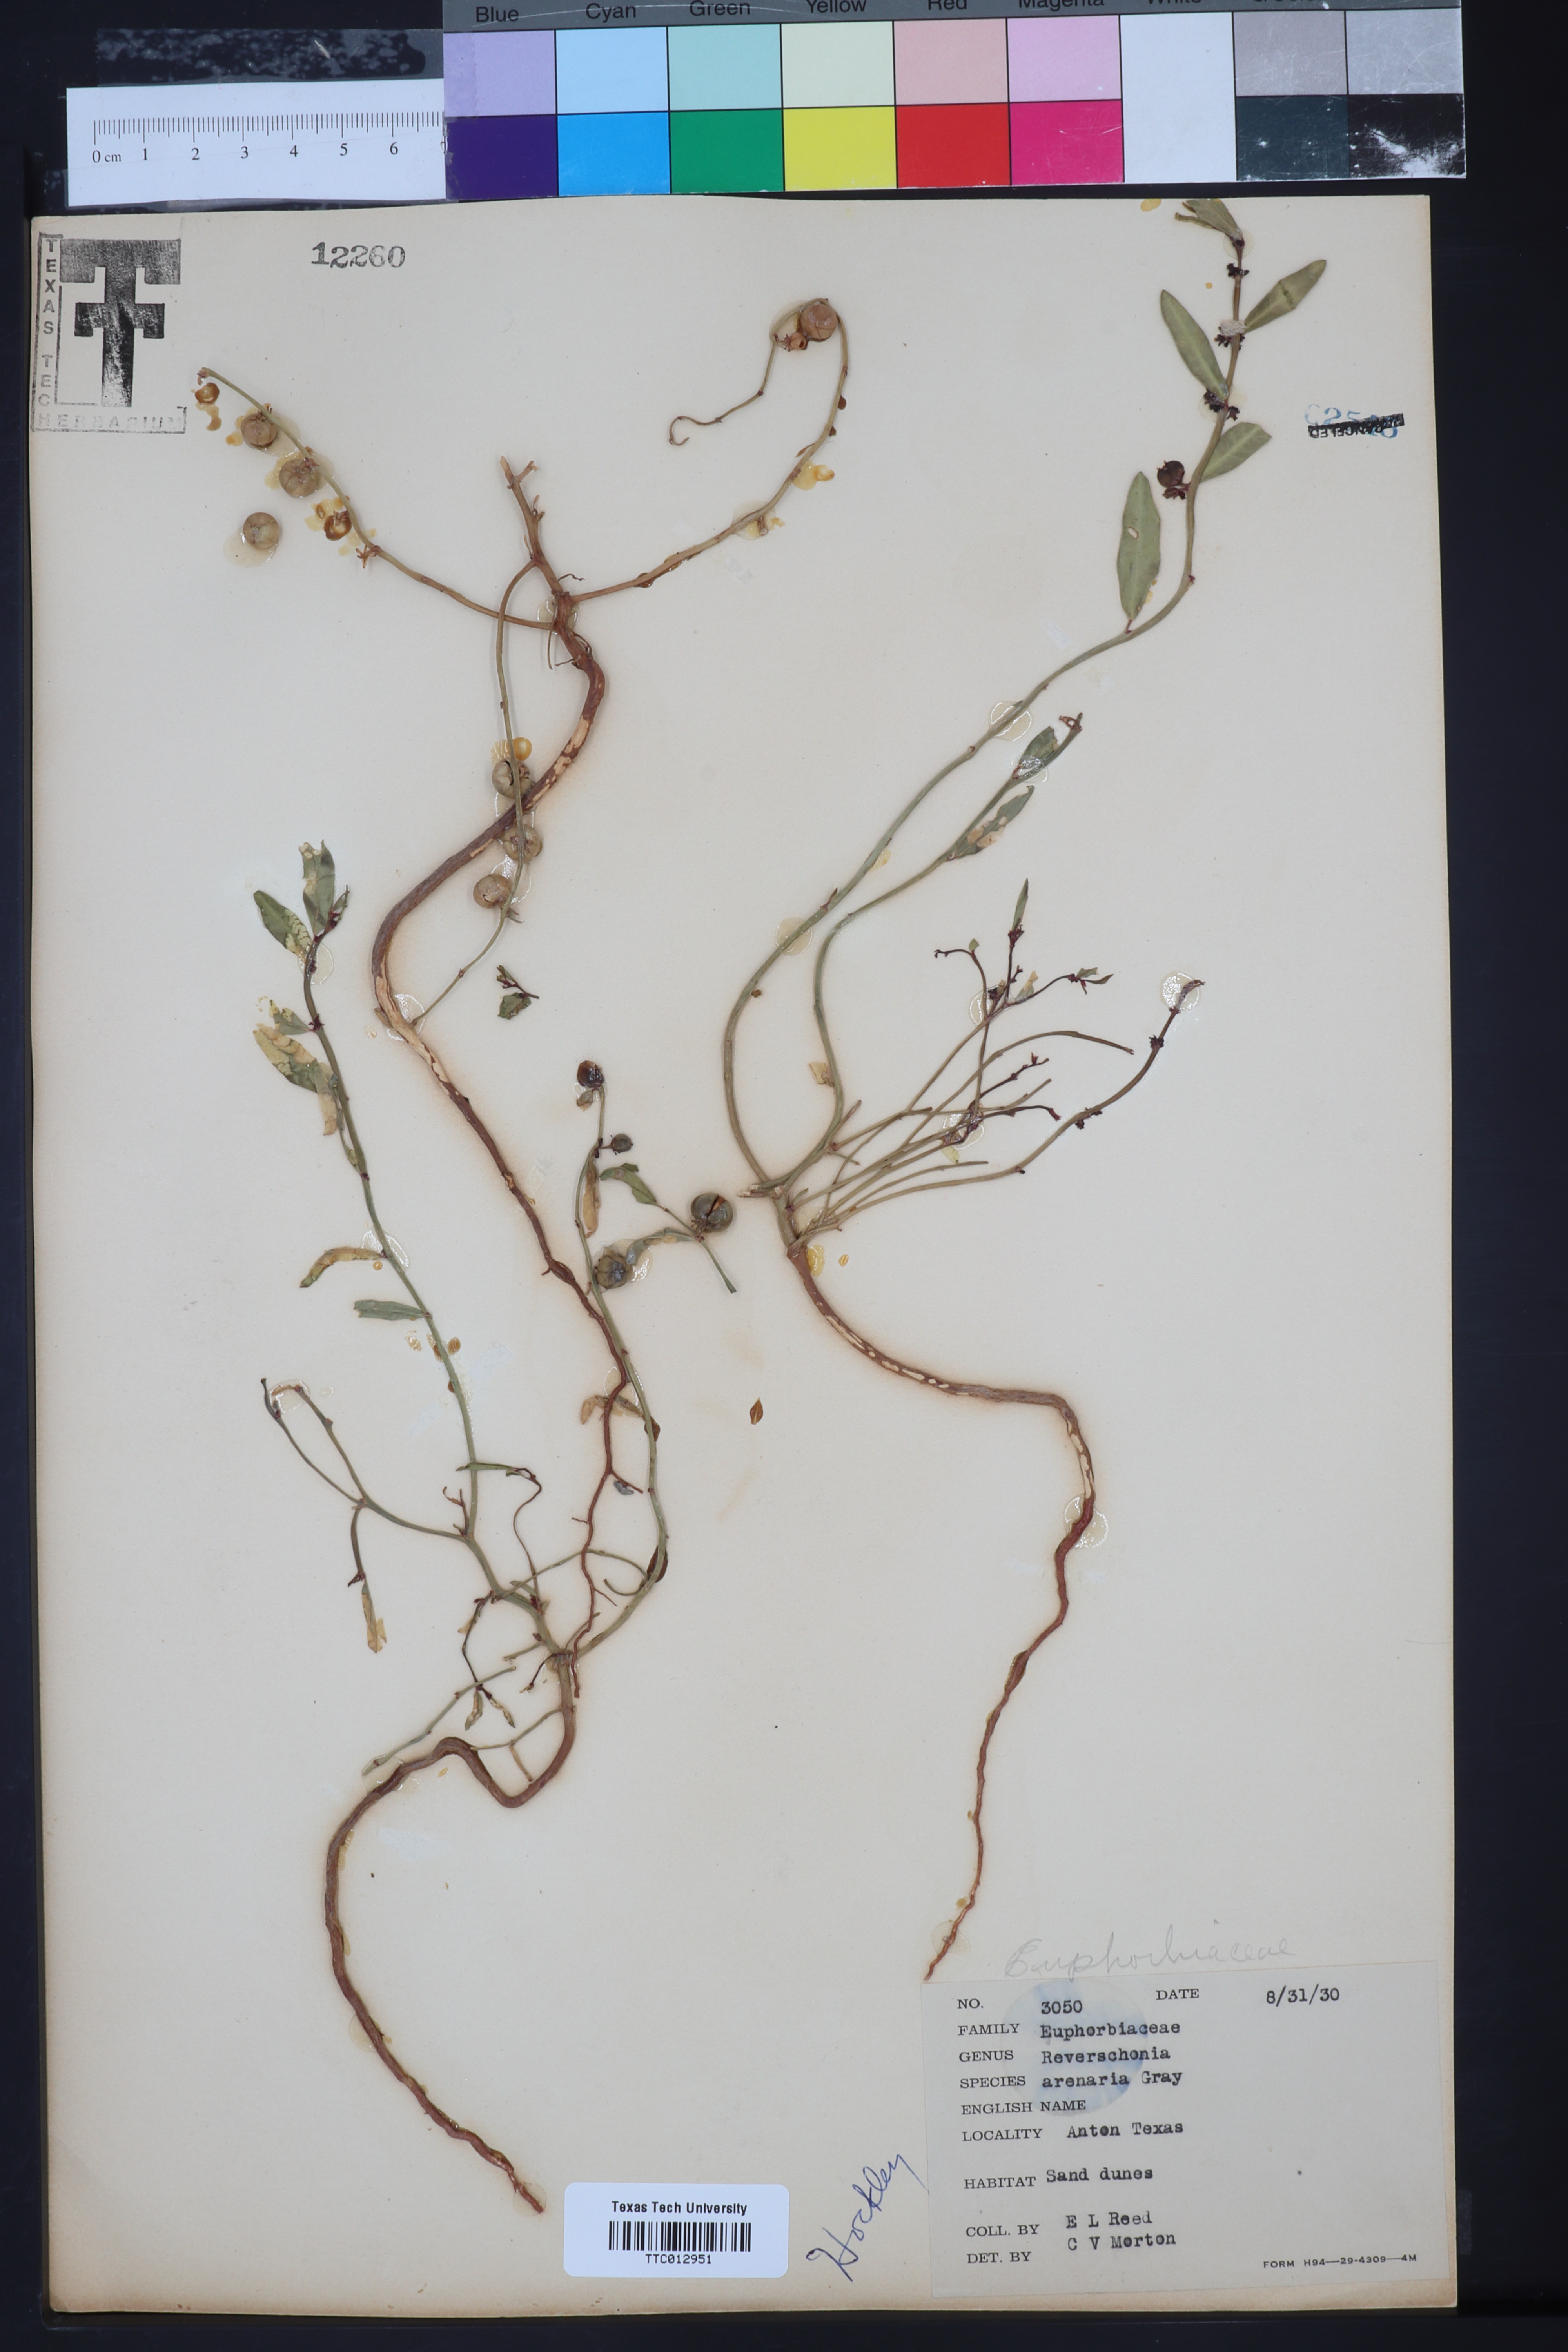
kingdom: Plantae
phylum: Tracheophyta
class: Magnoliopsida
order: Malpighiales
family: Phyllanthaceae
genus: Phyllanthus
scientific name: Phyllanthus warnockii
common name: Sand reverchonia
